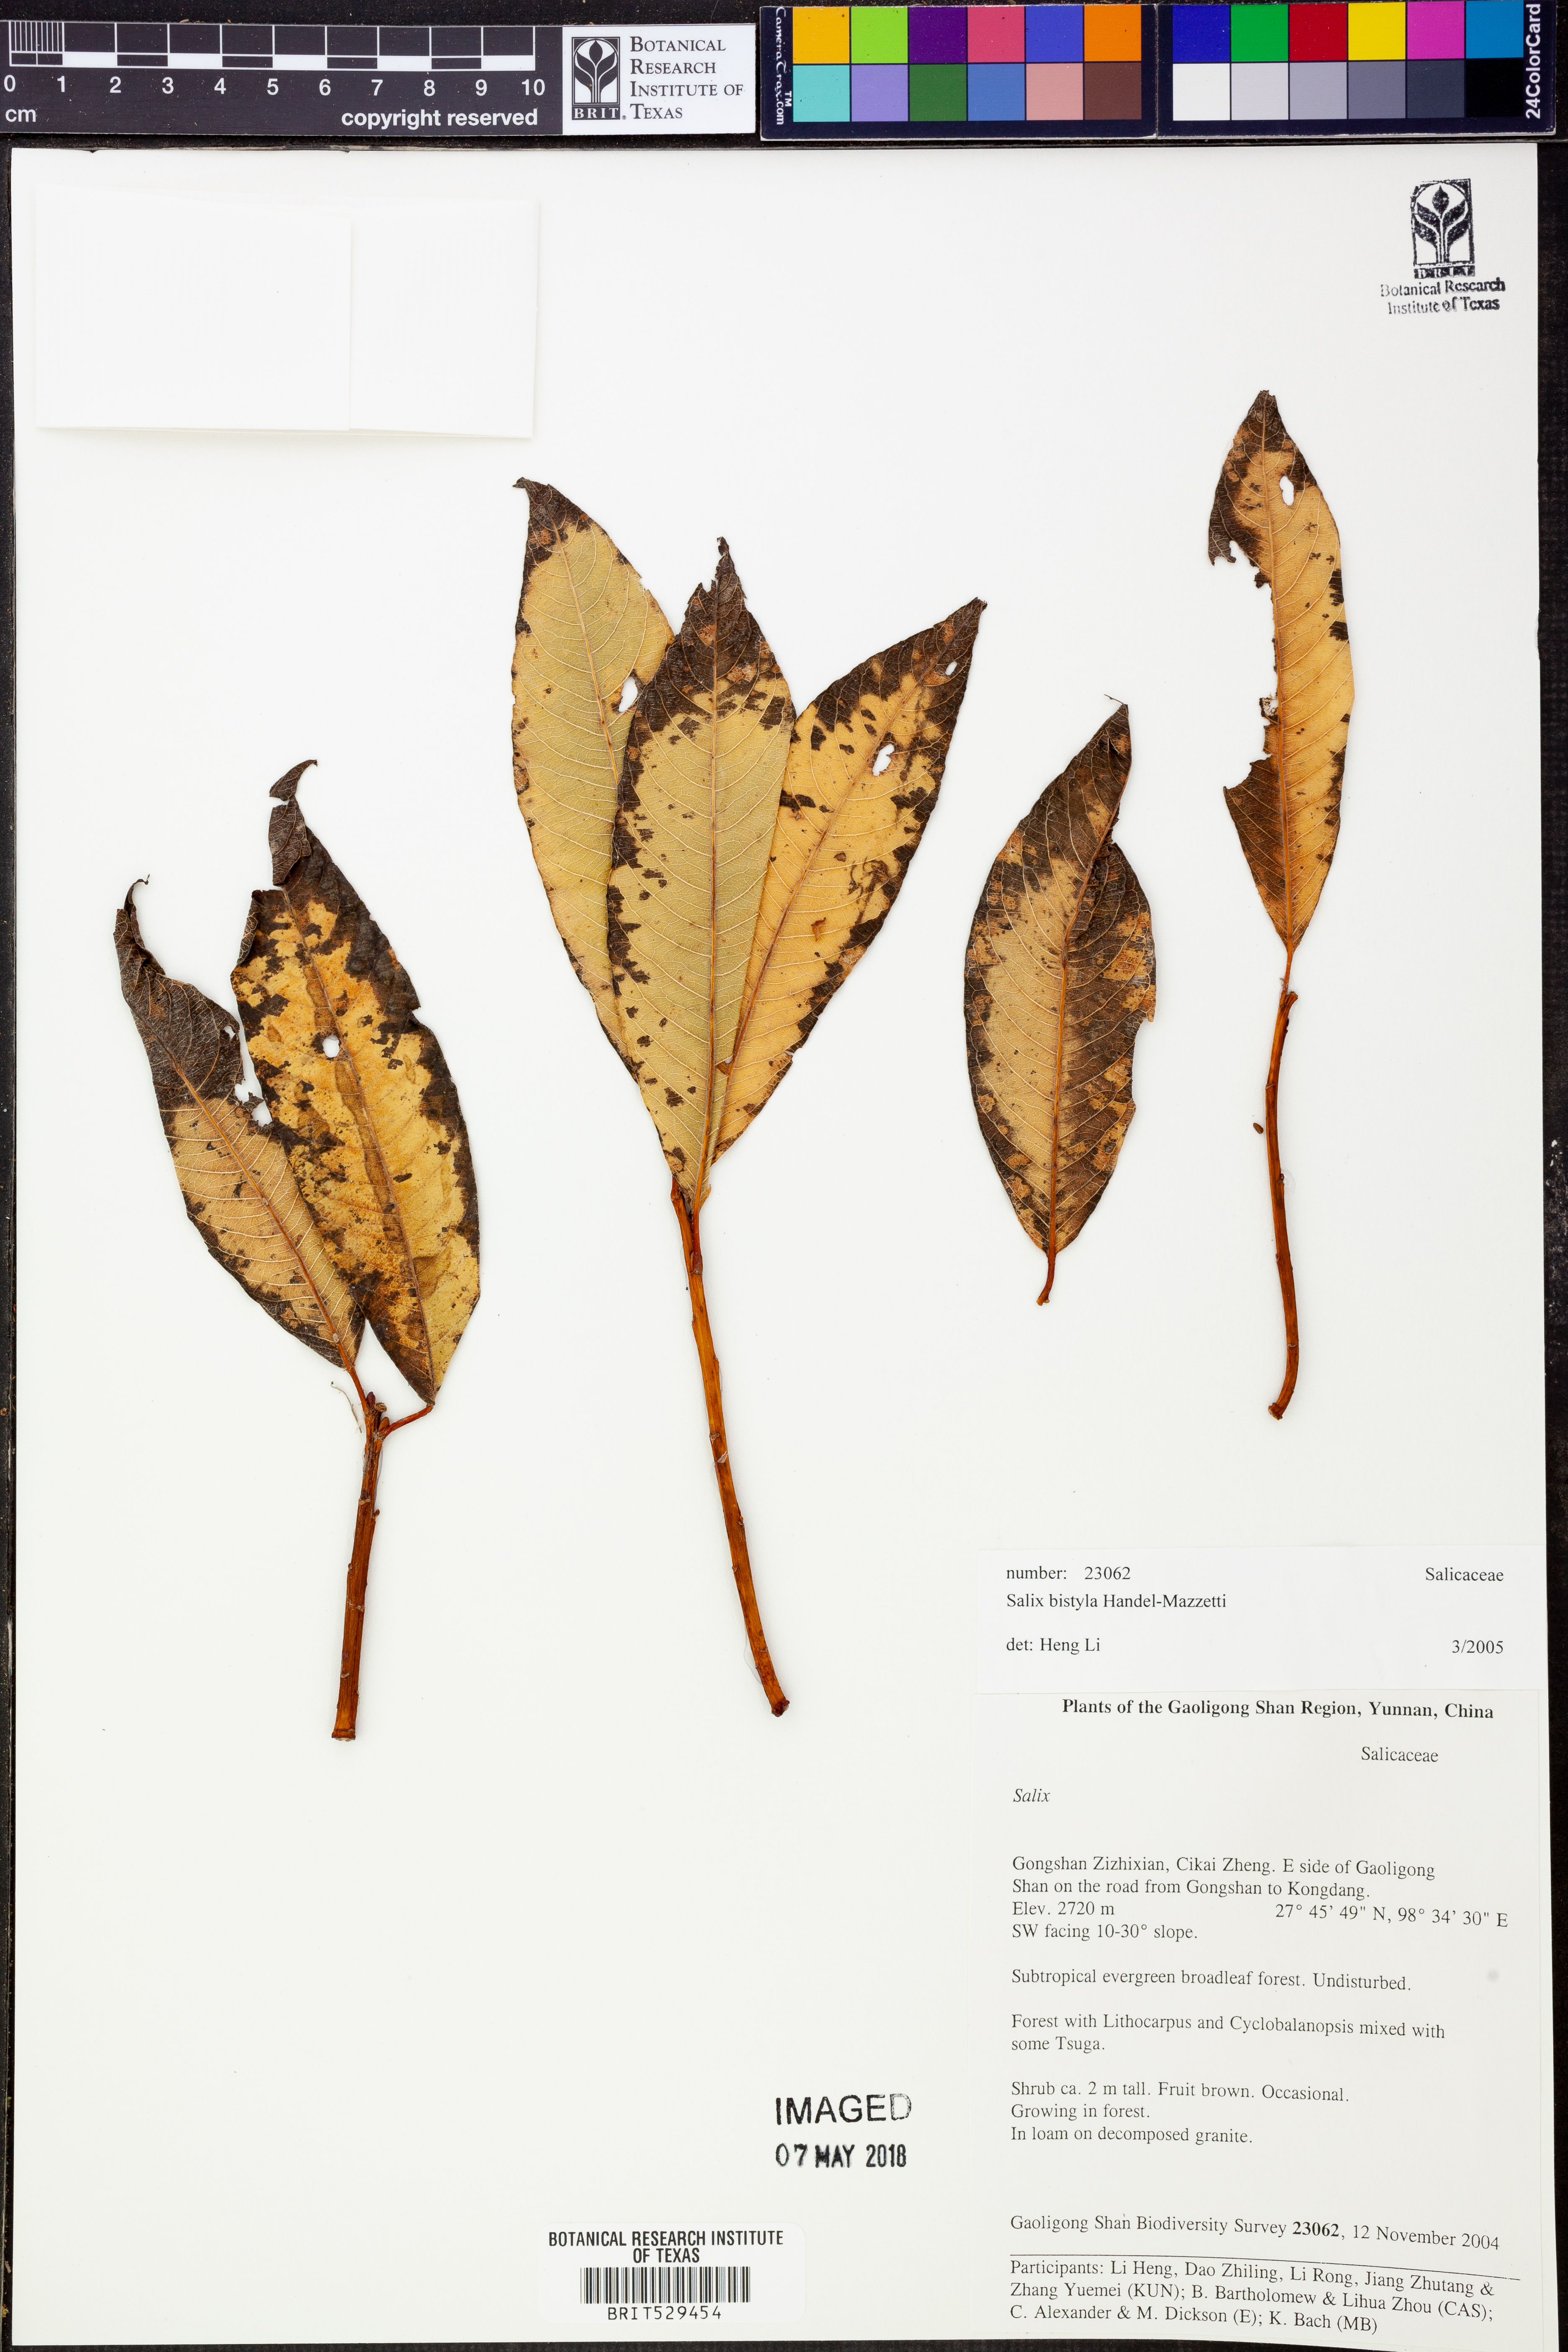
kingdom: Plantae
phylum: Tracheophyta
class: Magnoliopsida
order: Malpighiales
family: Salicaceae
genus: Salix
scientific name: Salix bistyla
